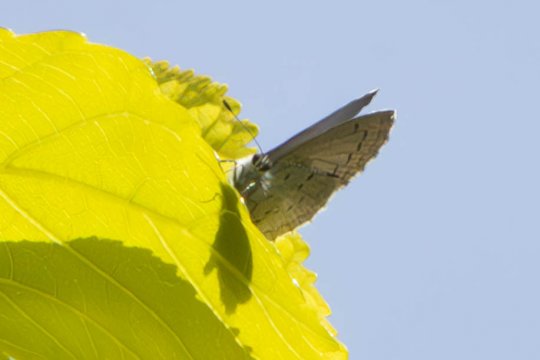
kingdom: Animalia
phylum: Arthropoda
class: Insecta
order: Lepidoptera
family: Lycaenidae
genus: Celastrina
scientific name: Celastrina ladon
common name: Spring Azure
